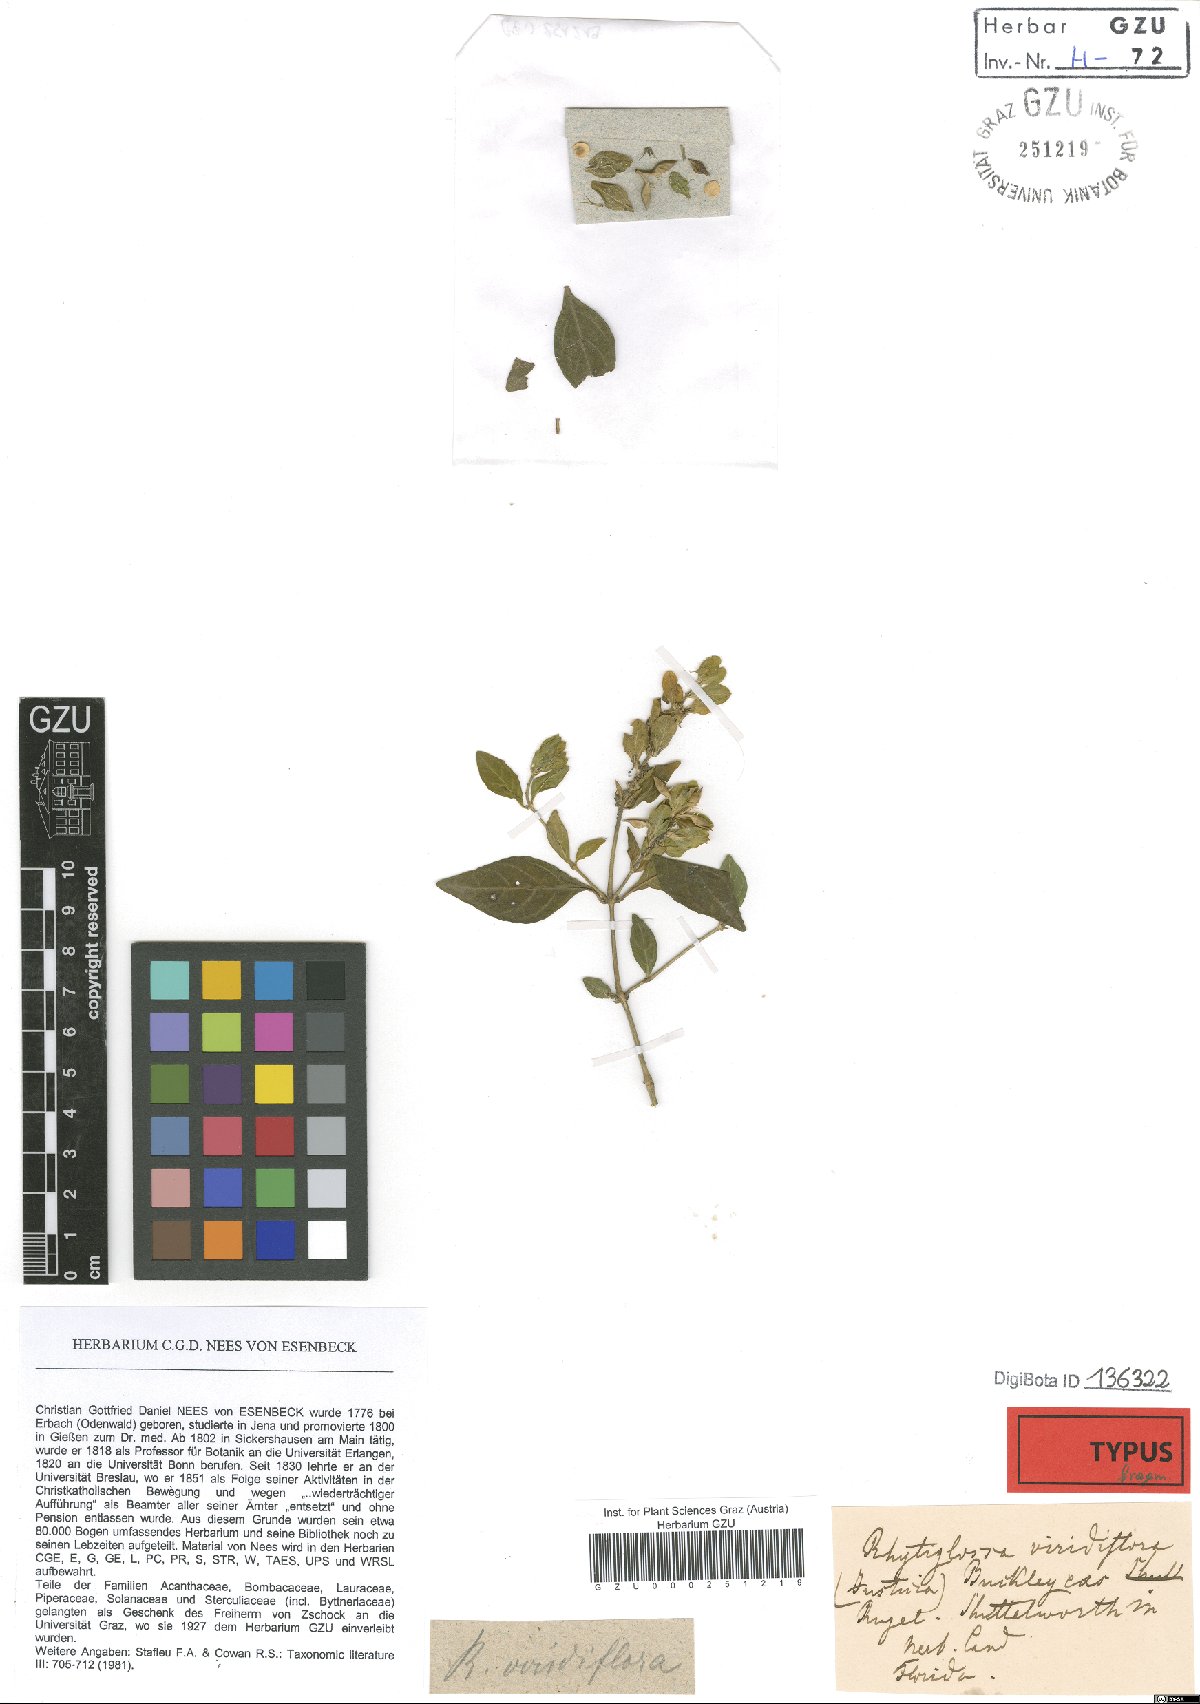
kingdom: Plantae
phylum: Tracheophyta
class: Magnoliopsida
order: Lamiales
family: Acanthaceae
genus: Yeatesia
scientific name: Yeatesia viridiflora
